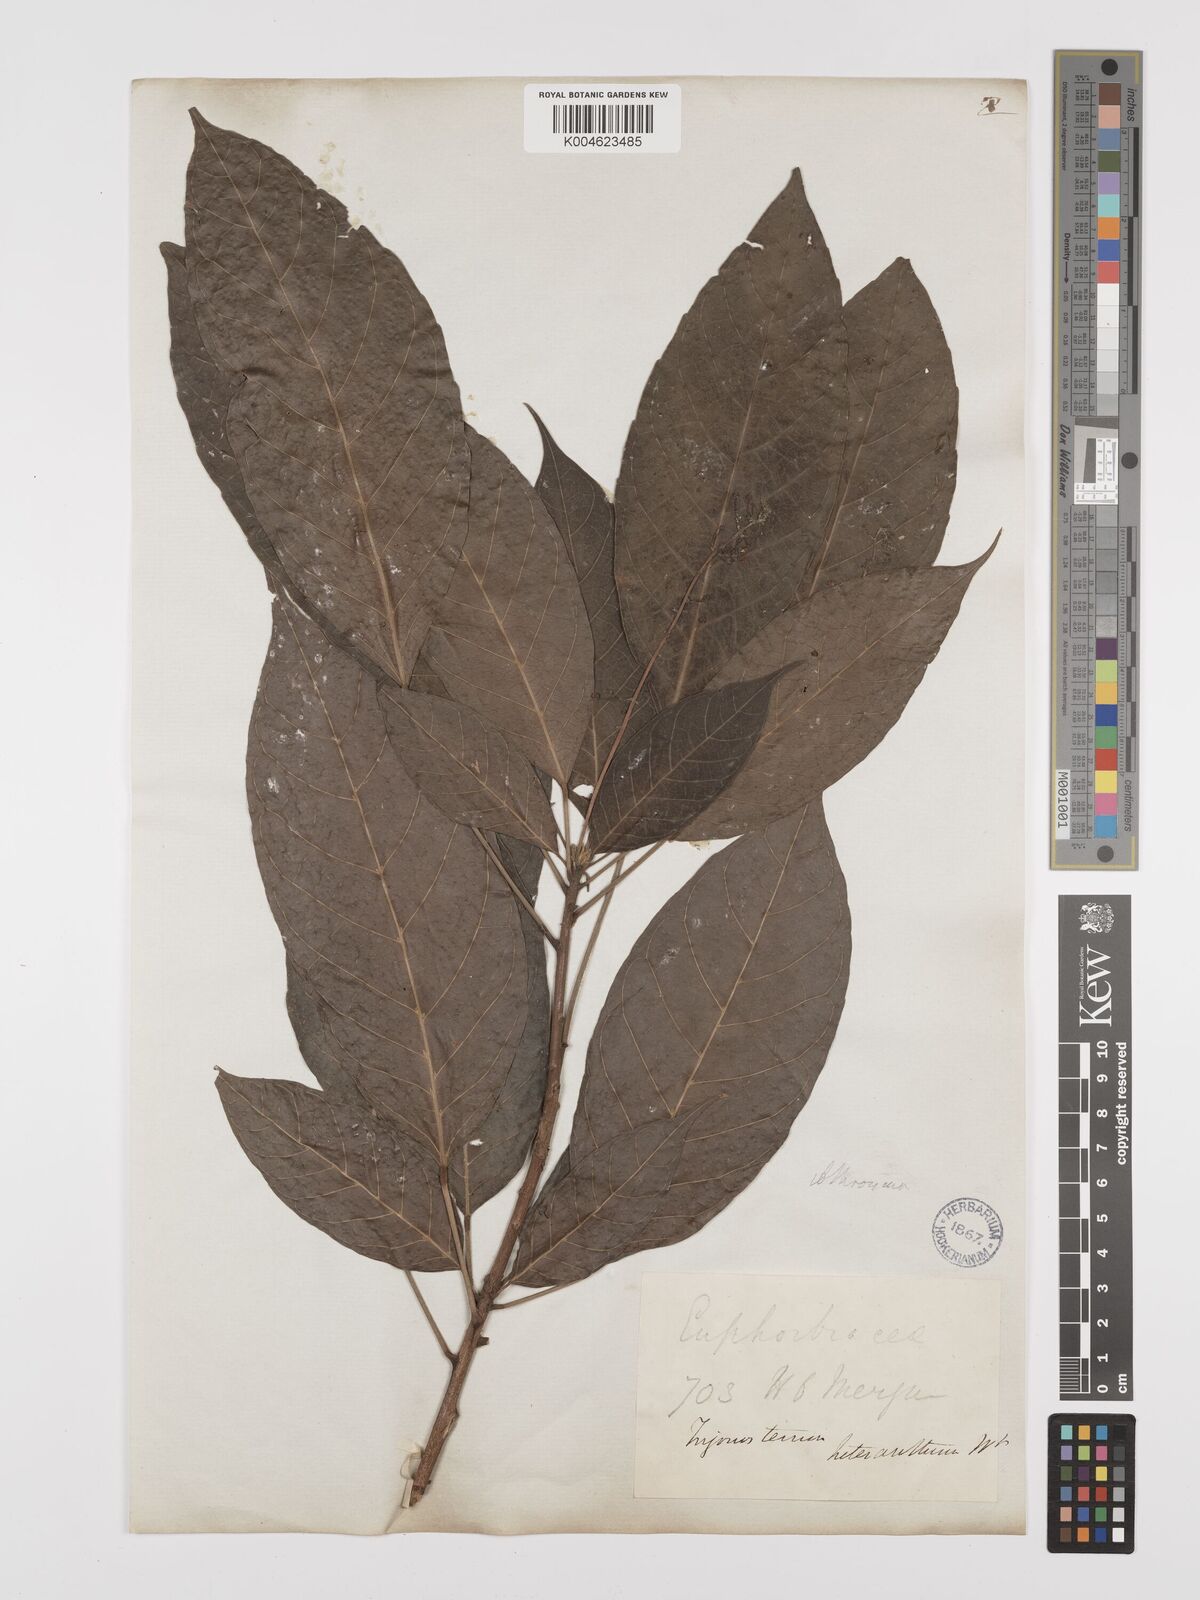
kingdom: Plantae
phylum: Tracheophyta
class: Magnoliopsida
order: Malpighiales
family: Euphorbiaceae
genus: Trigonostemon
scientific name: Trigonostemon heteranthus
